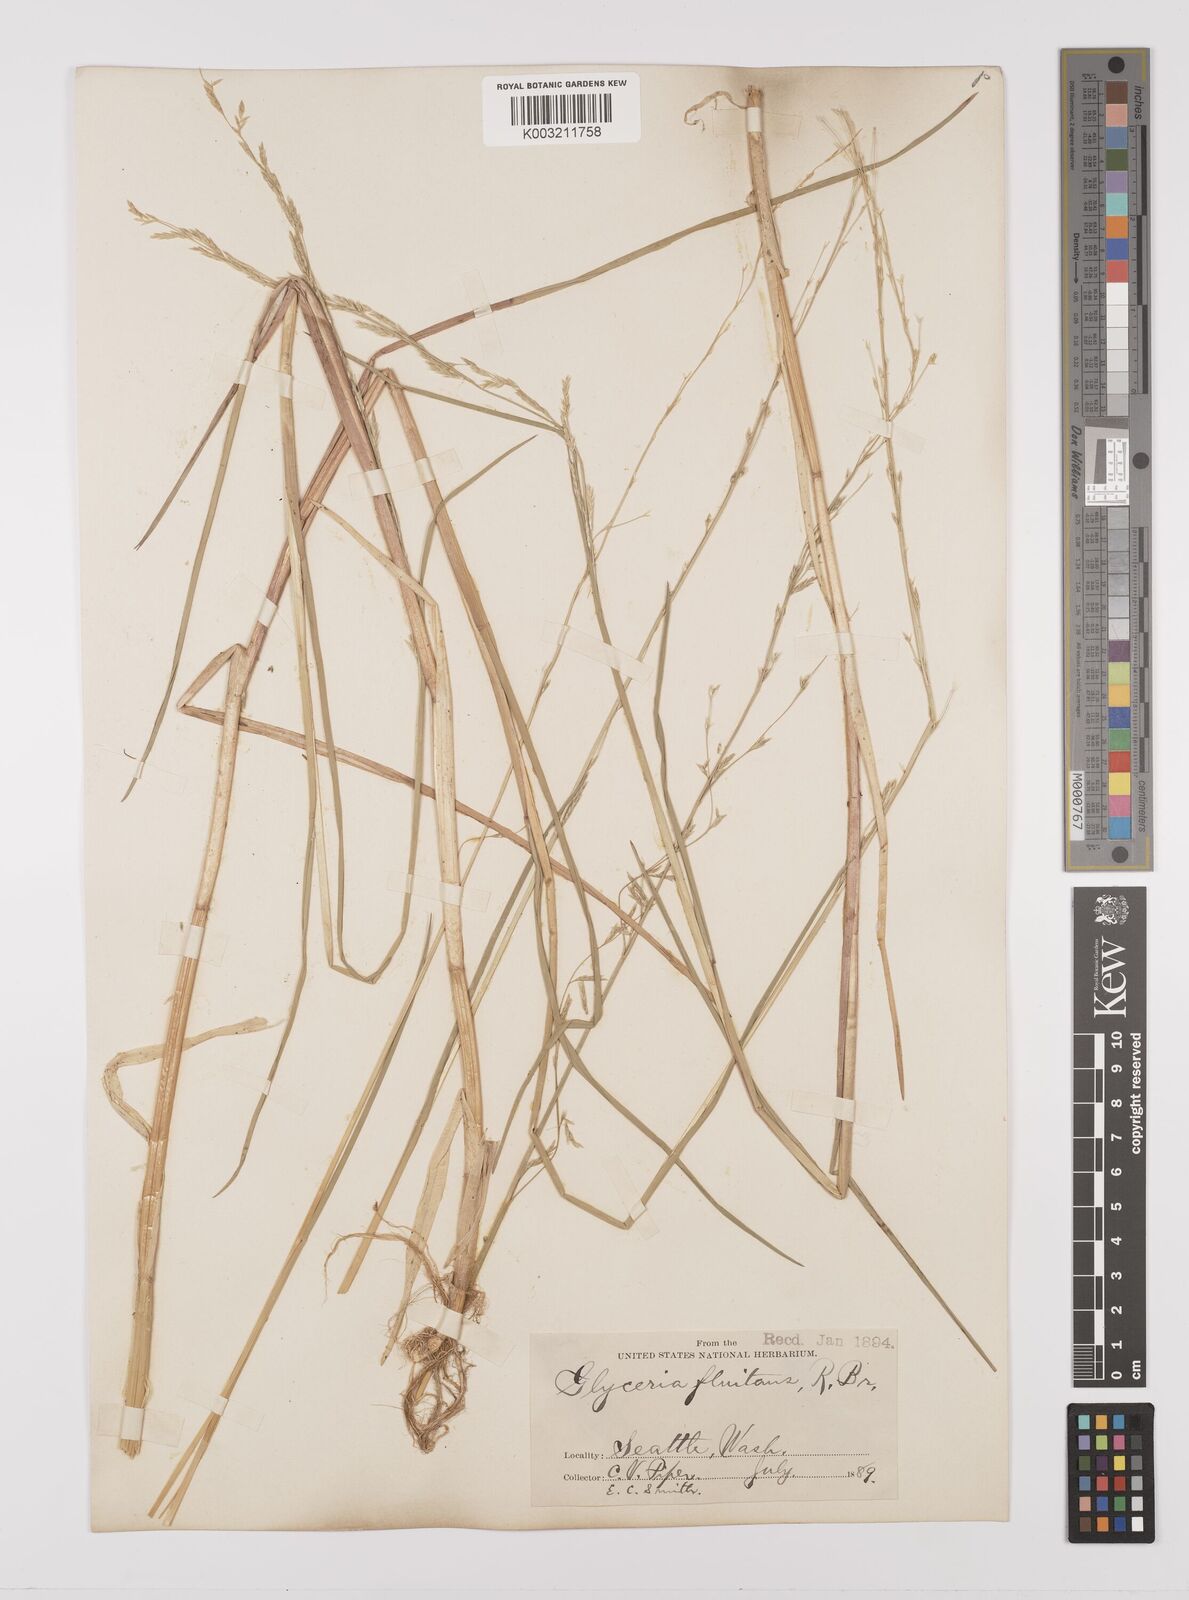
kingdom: Plantae
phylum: Tracheophyta
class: Liliopsida
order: Poales
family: Poaceae
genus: Glyceria
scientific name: Glyceria borealis
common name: Boreal glyceria
